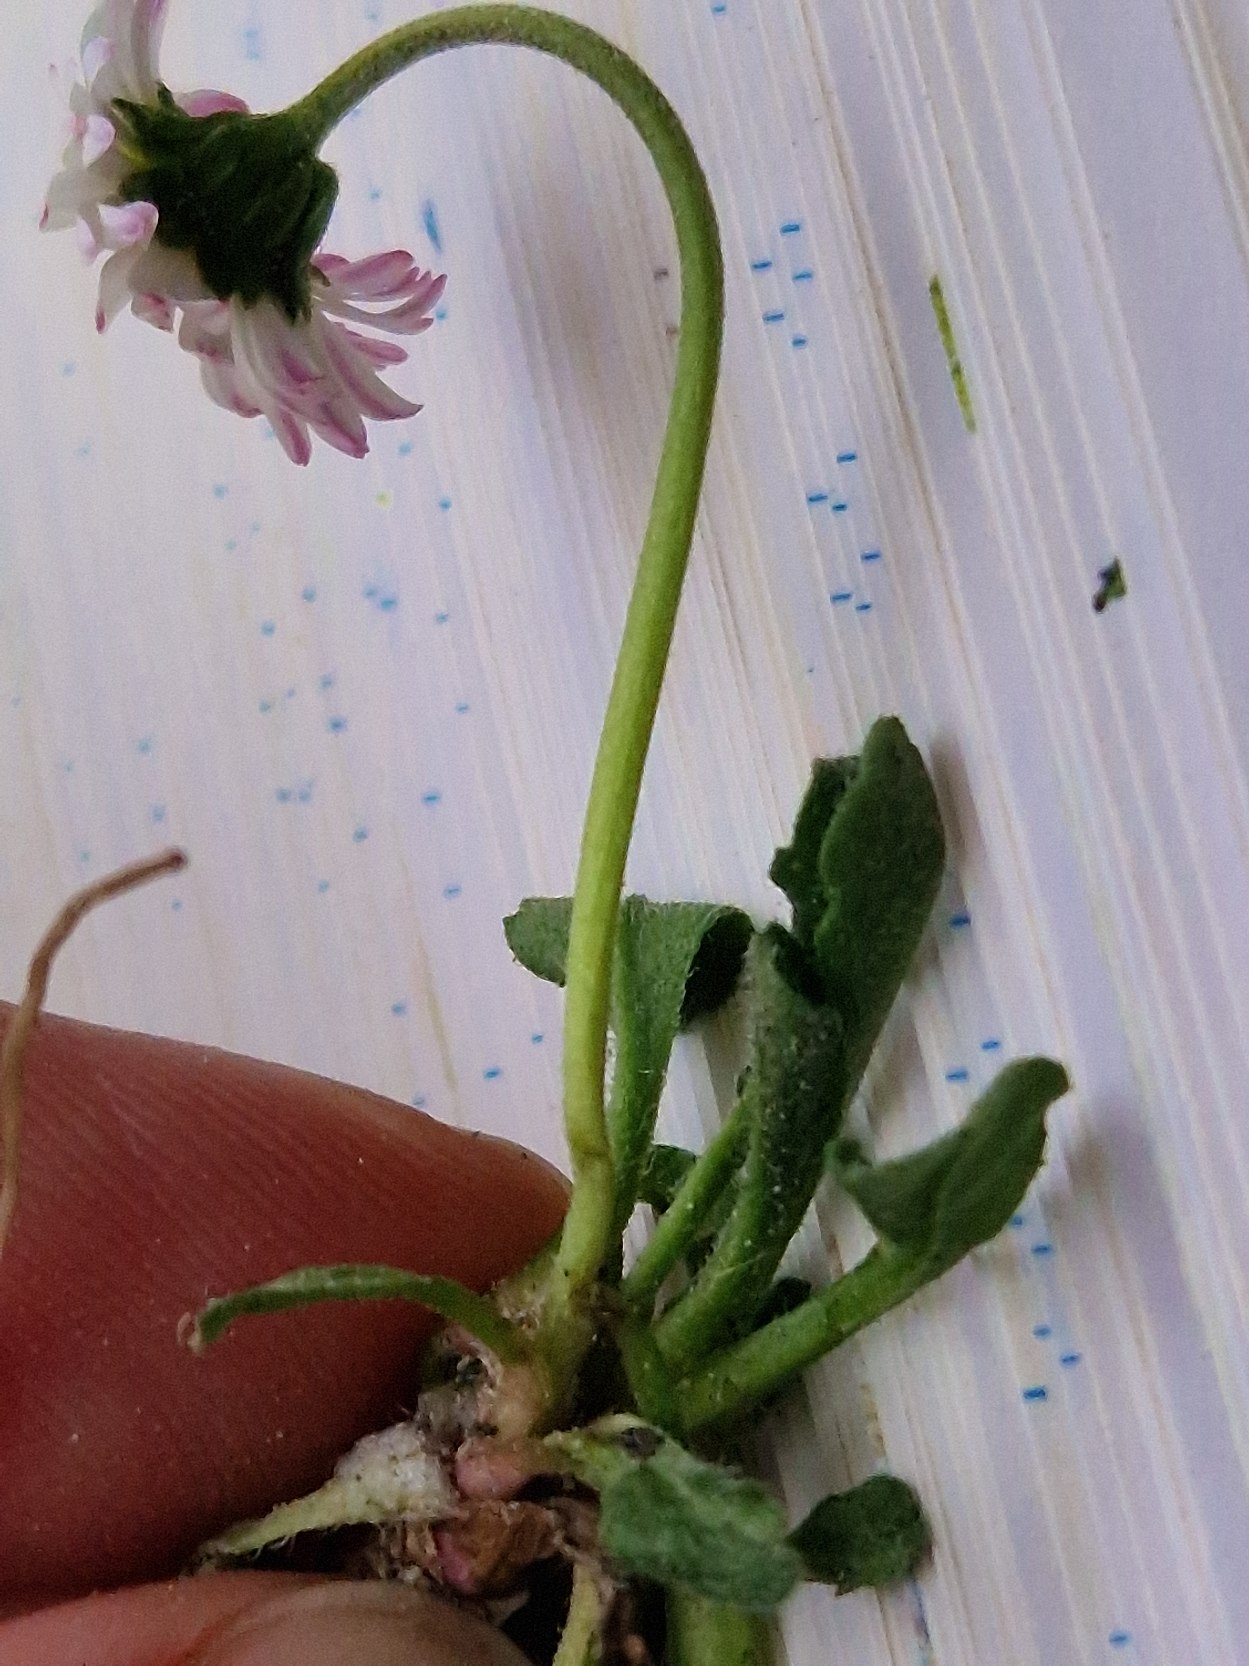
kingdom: Plantae
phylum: Tracheophyta
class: Magnoliopsida
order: Asterales
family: Asteraceae
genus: Bellis
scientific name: Bellis perennis
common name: Tusindfryd
